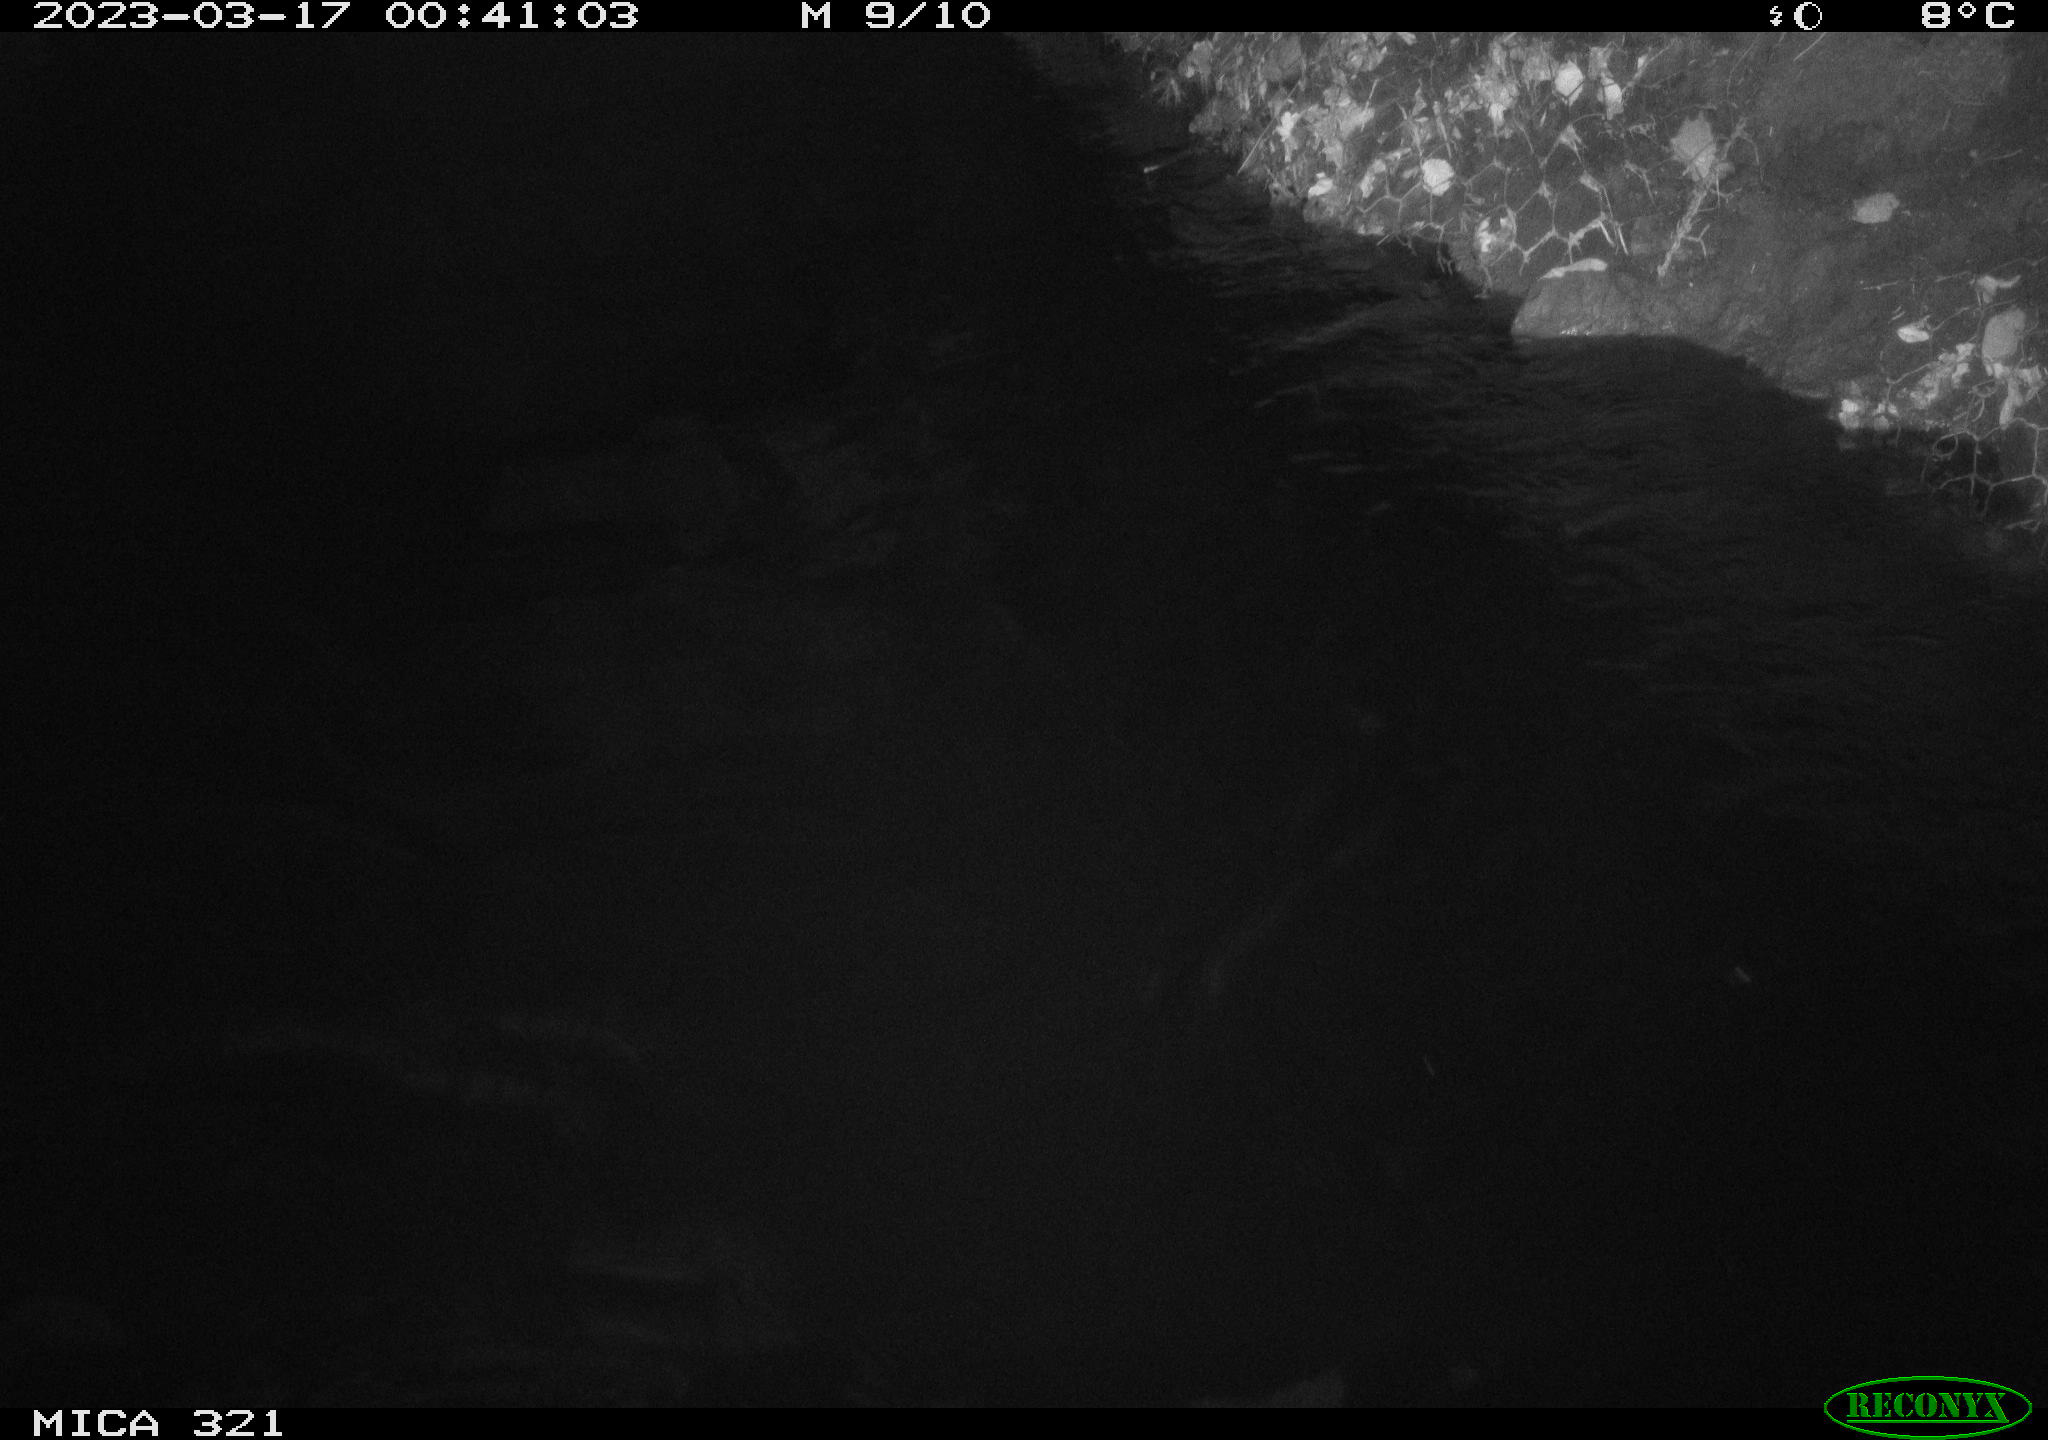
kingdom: Animalia
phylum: Chordata
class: Mammalia
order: Rodentia
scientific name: Rodentia
